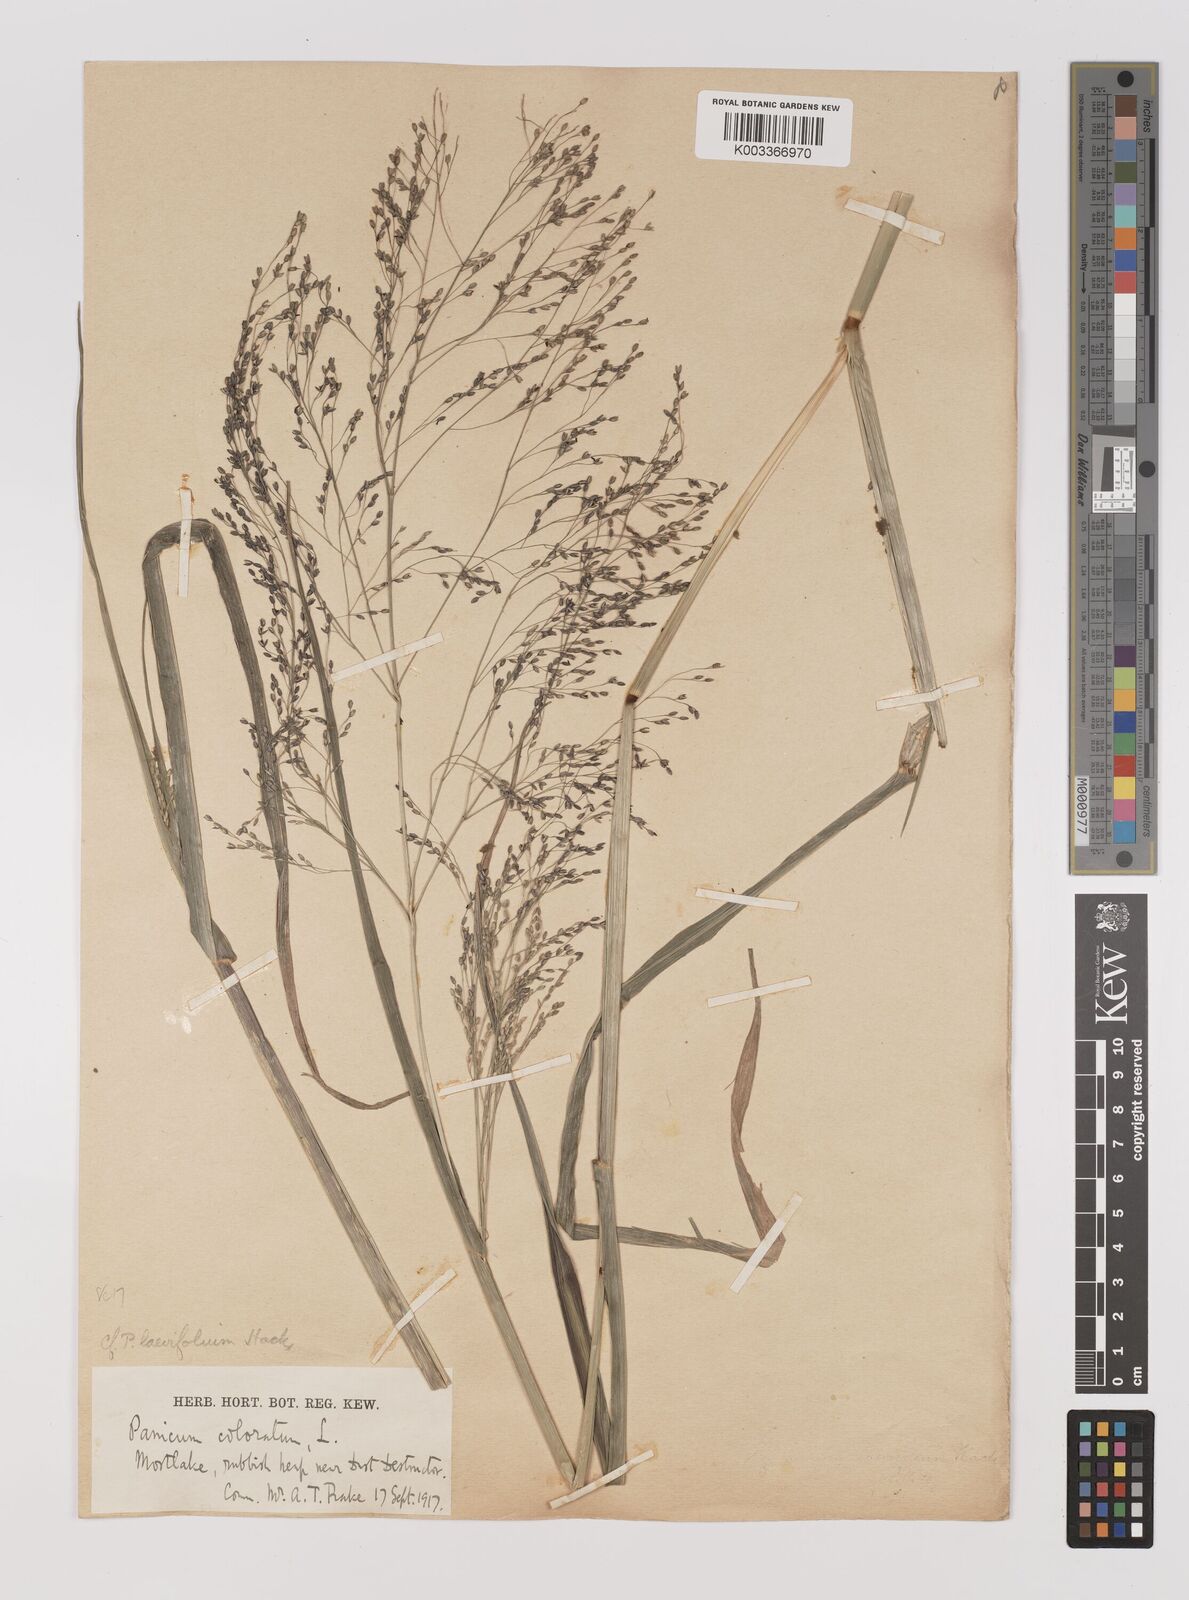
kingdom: Plantae
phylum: Tracheophyta
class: Liliopsida
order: Poales
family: Poaceae
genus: Panicum
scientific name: Panicum schinzii
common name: Sweet grass
